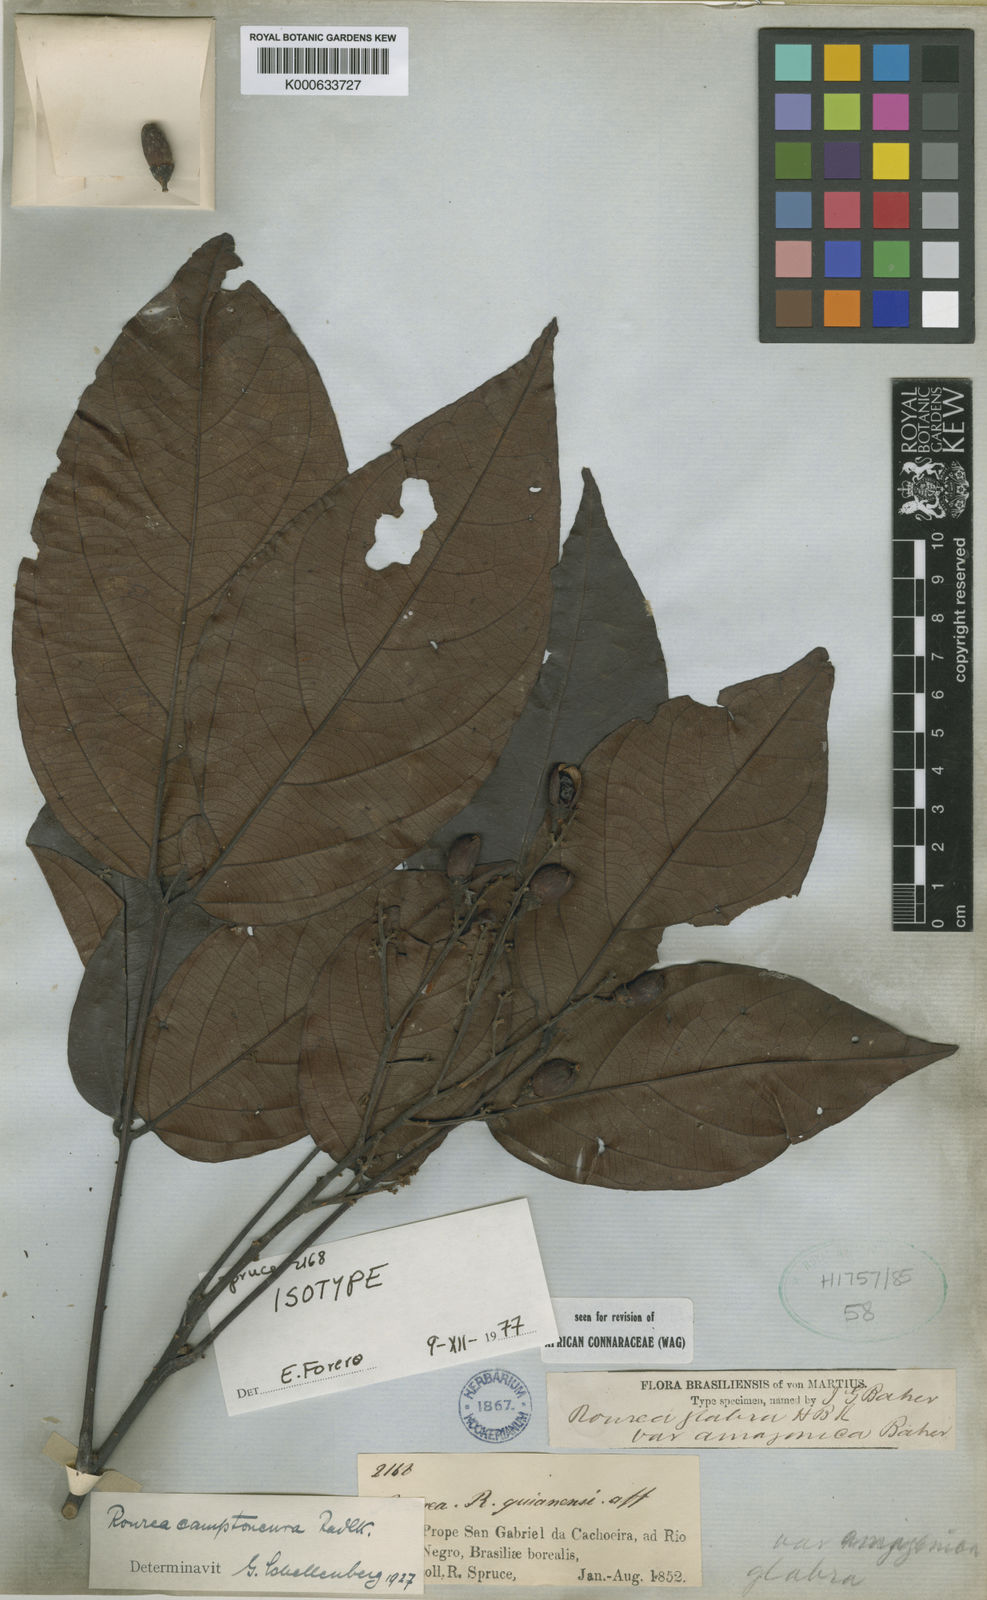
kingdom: Plantae
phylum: Tracheophyta
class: Magnoliopsida
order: Oxalidales
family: Connaraceae
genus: Rourea
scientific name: Rourea camptoneura
